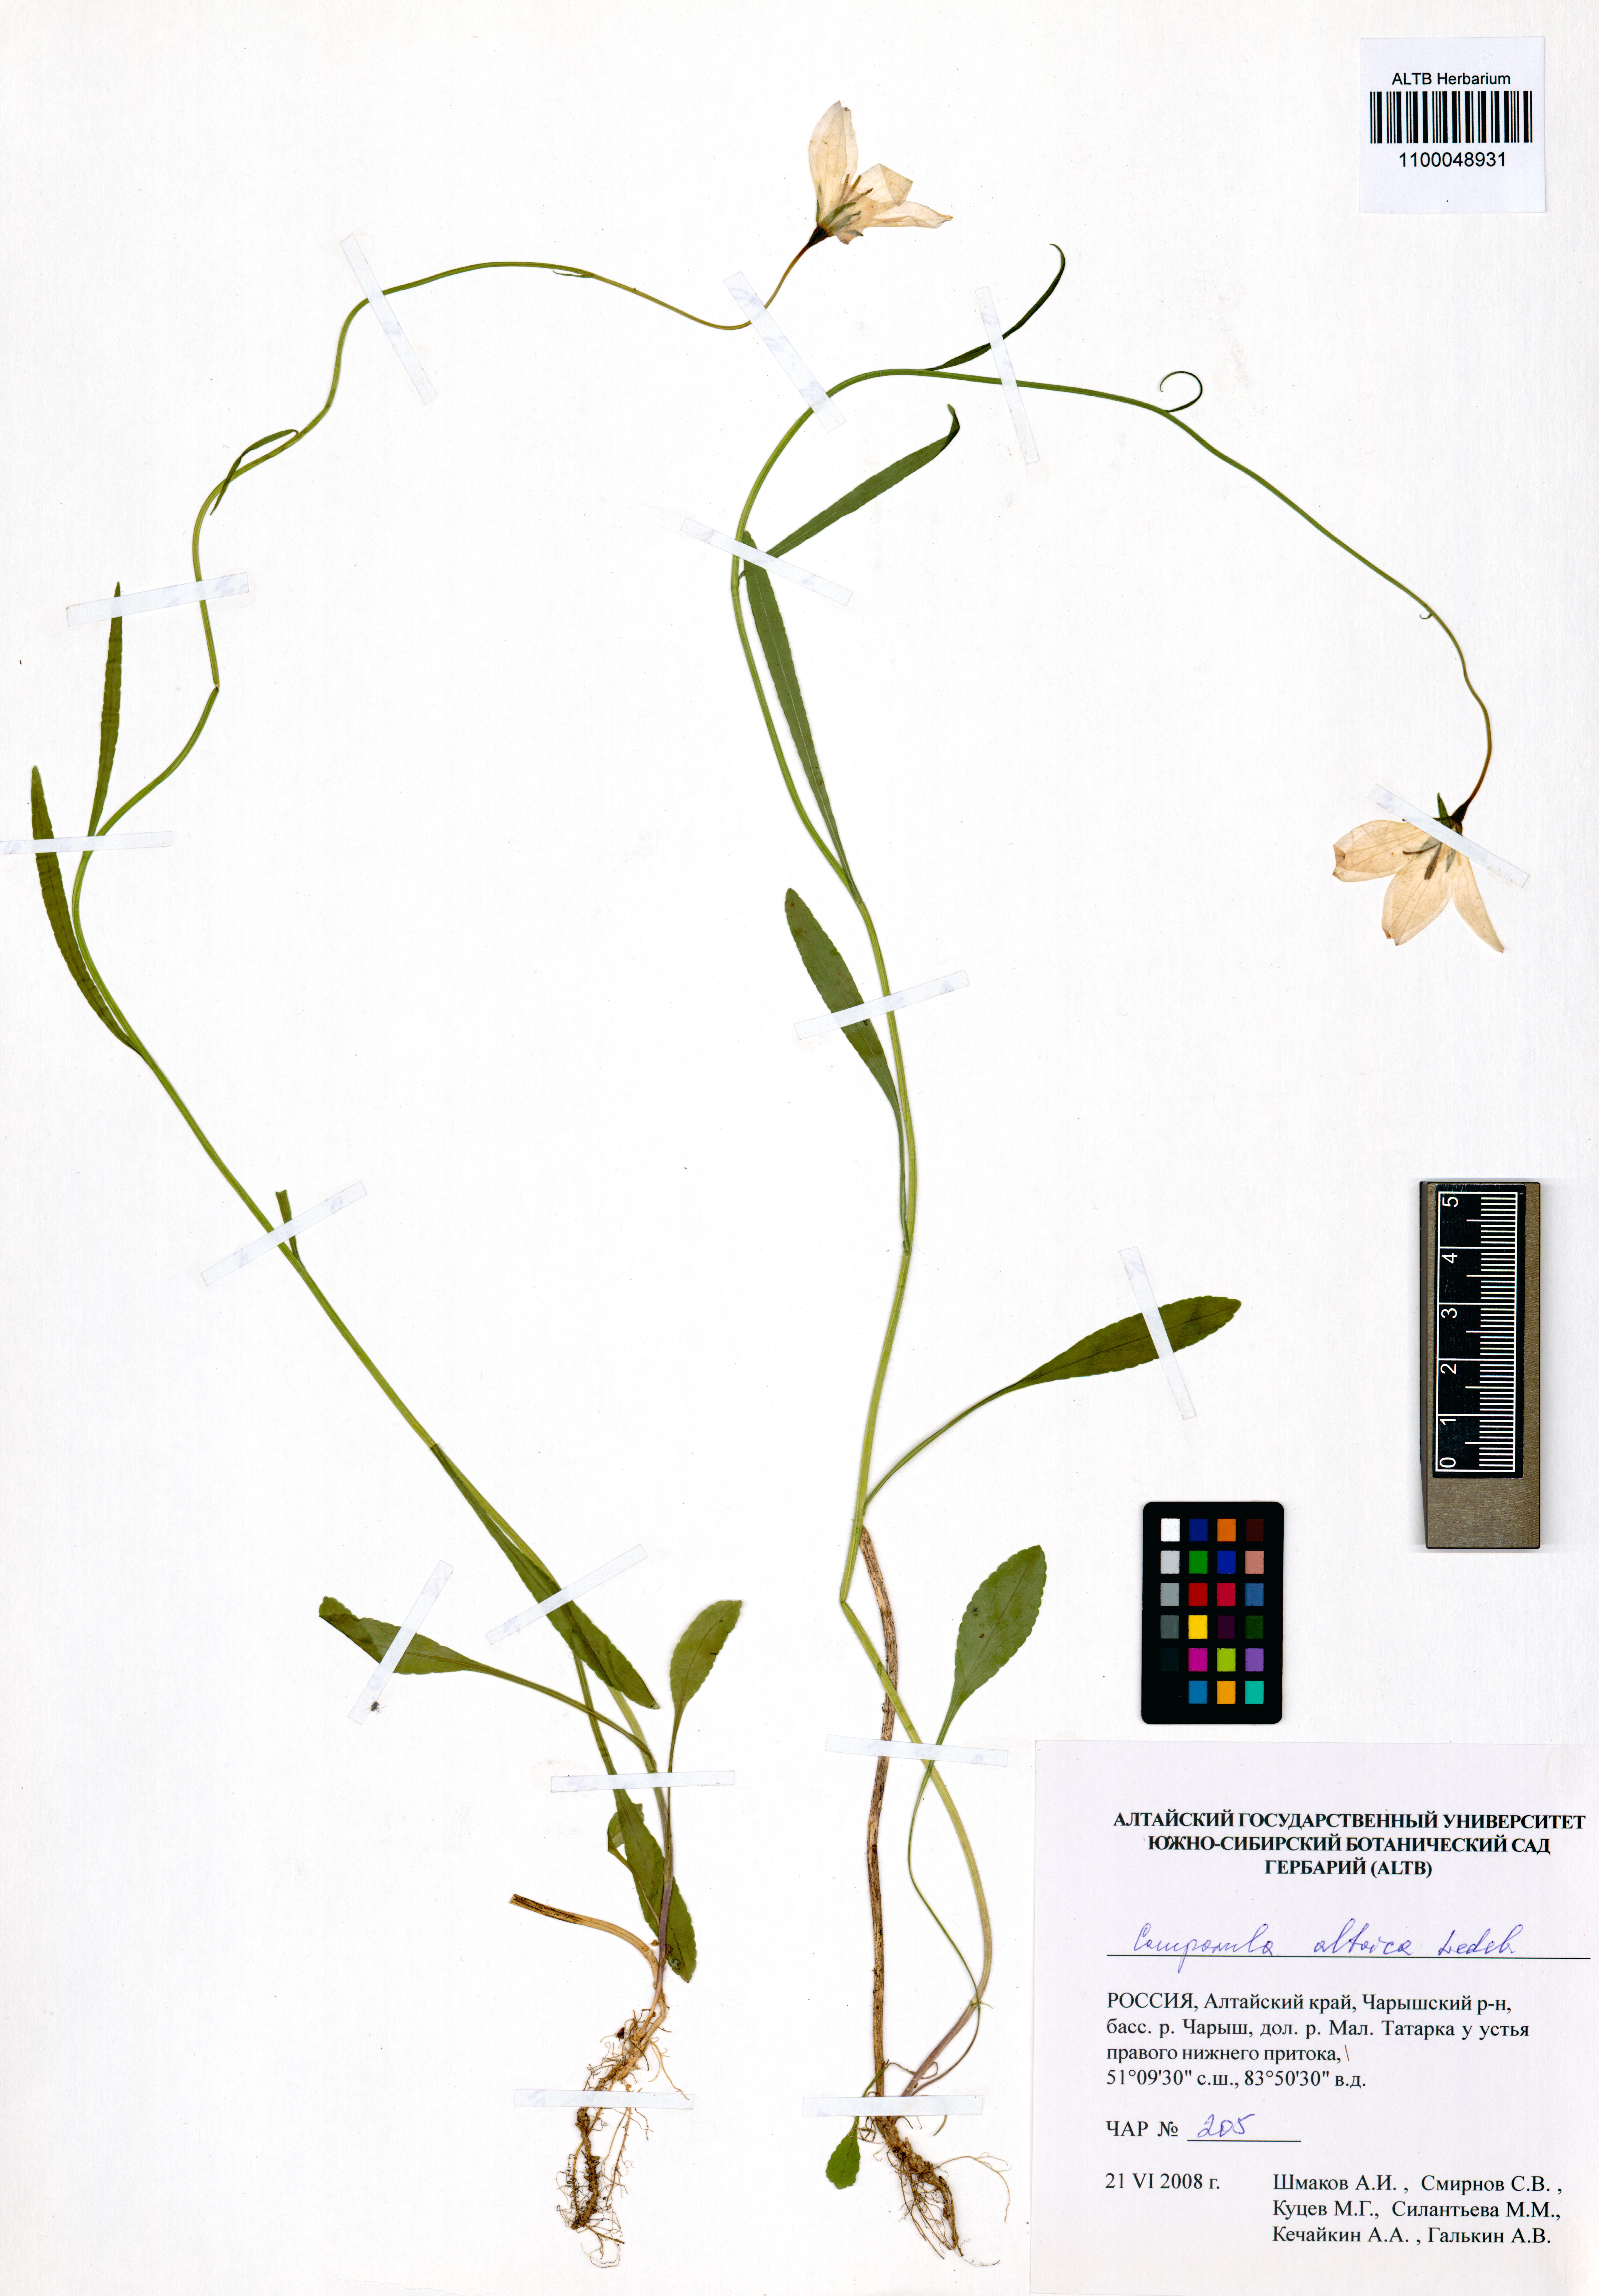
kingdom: Plantae
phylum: Tracheophyta
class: Magnoliopsida
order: Asterales
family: Campanulaceae
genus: Campanula
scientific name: Campanula stevenii
